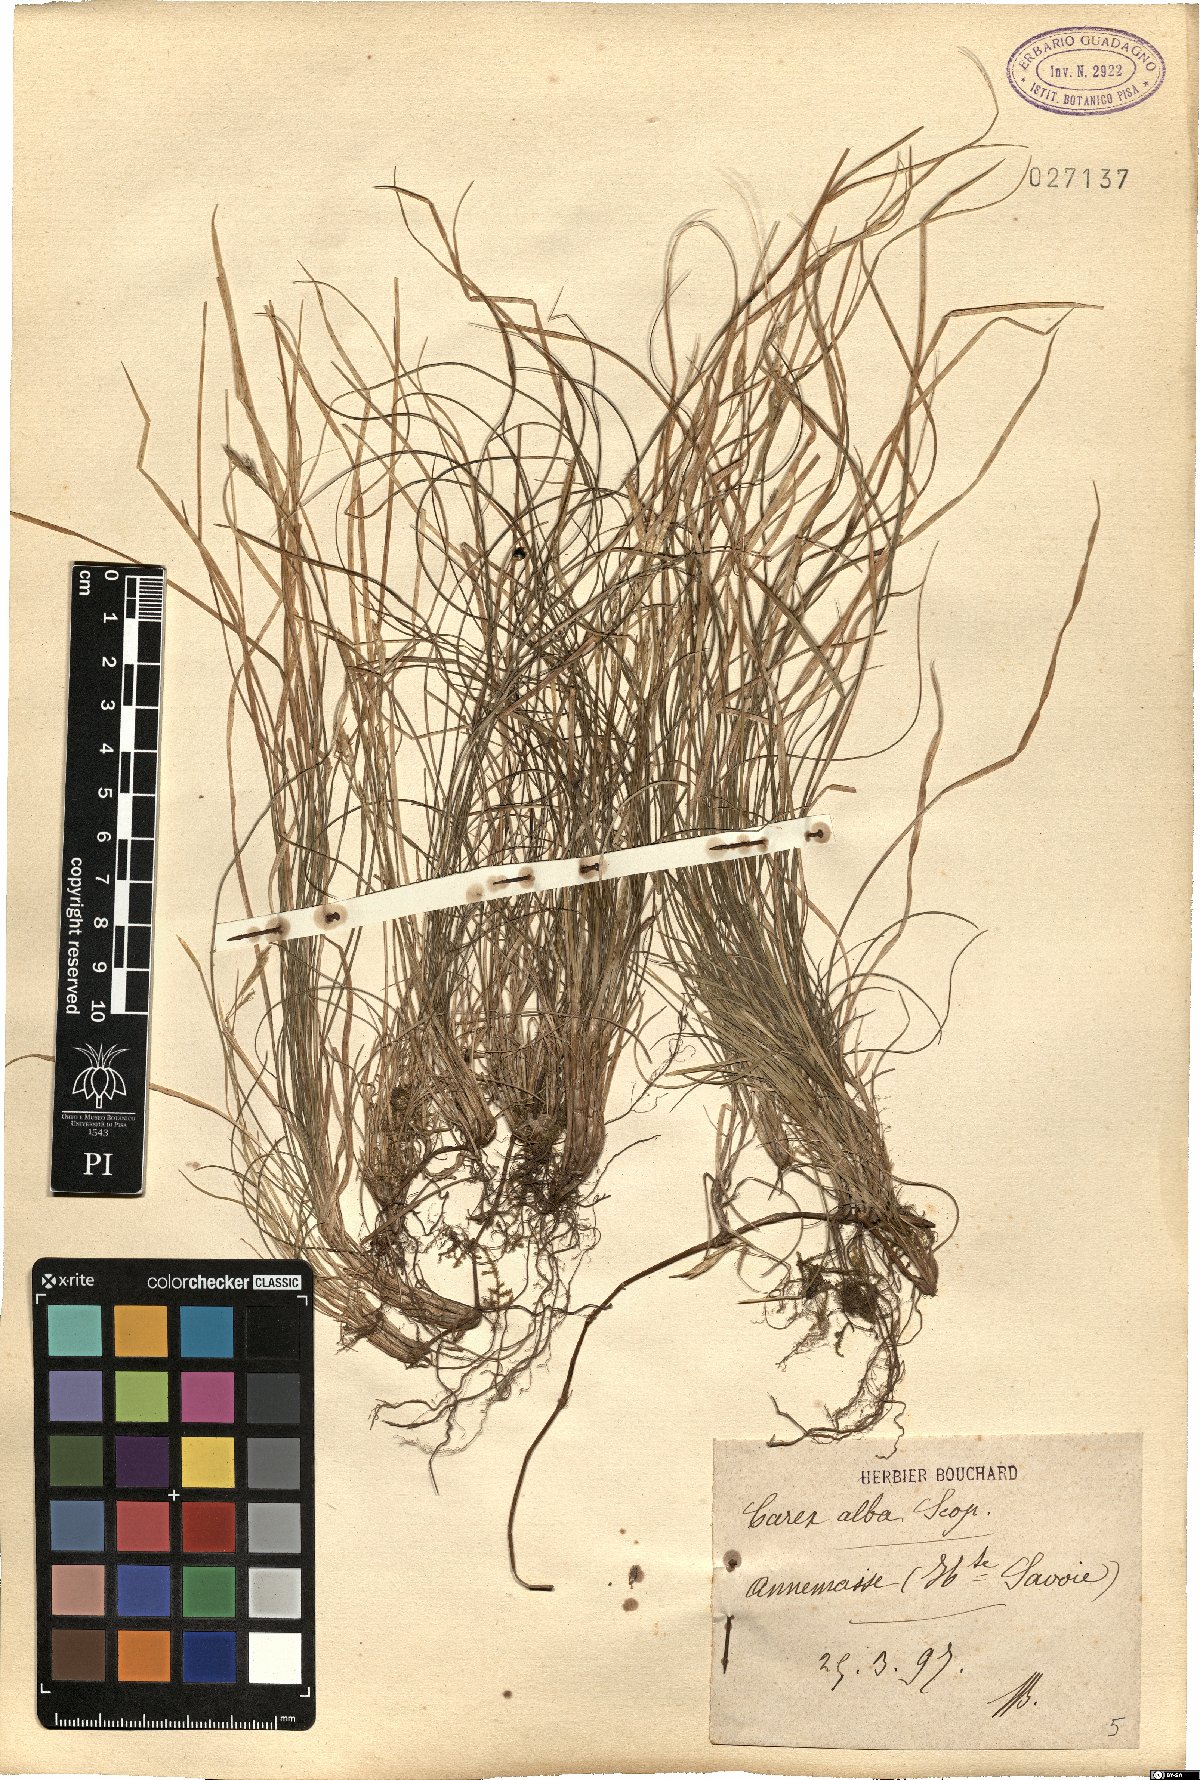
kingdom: Plantae
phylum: Tracheophyta
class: Liliopsida
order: Poales
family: Cyperaceae
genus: Carex
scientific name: Carex alba
